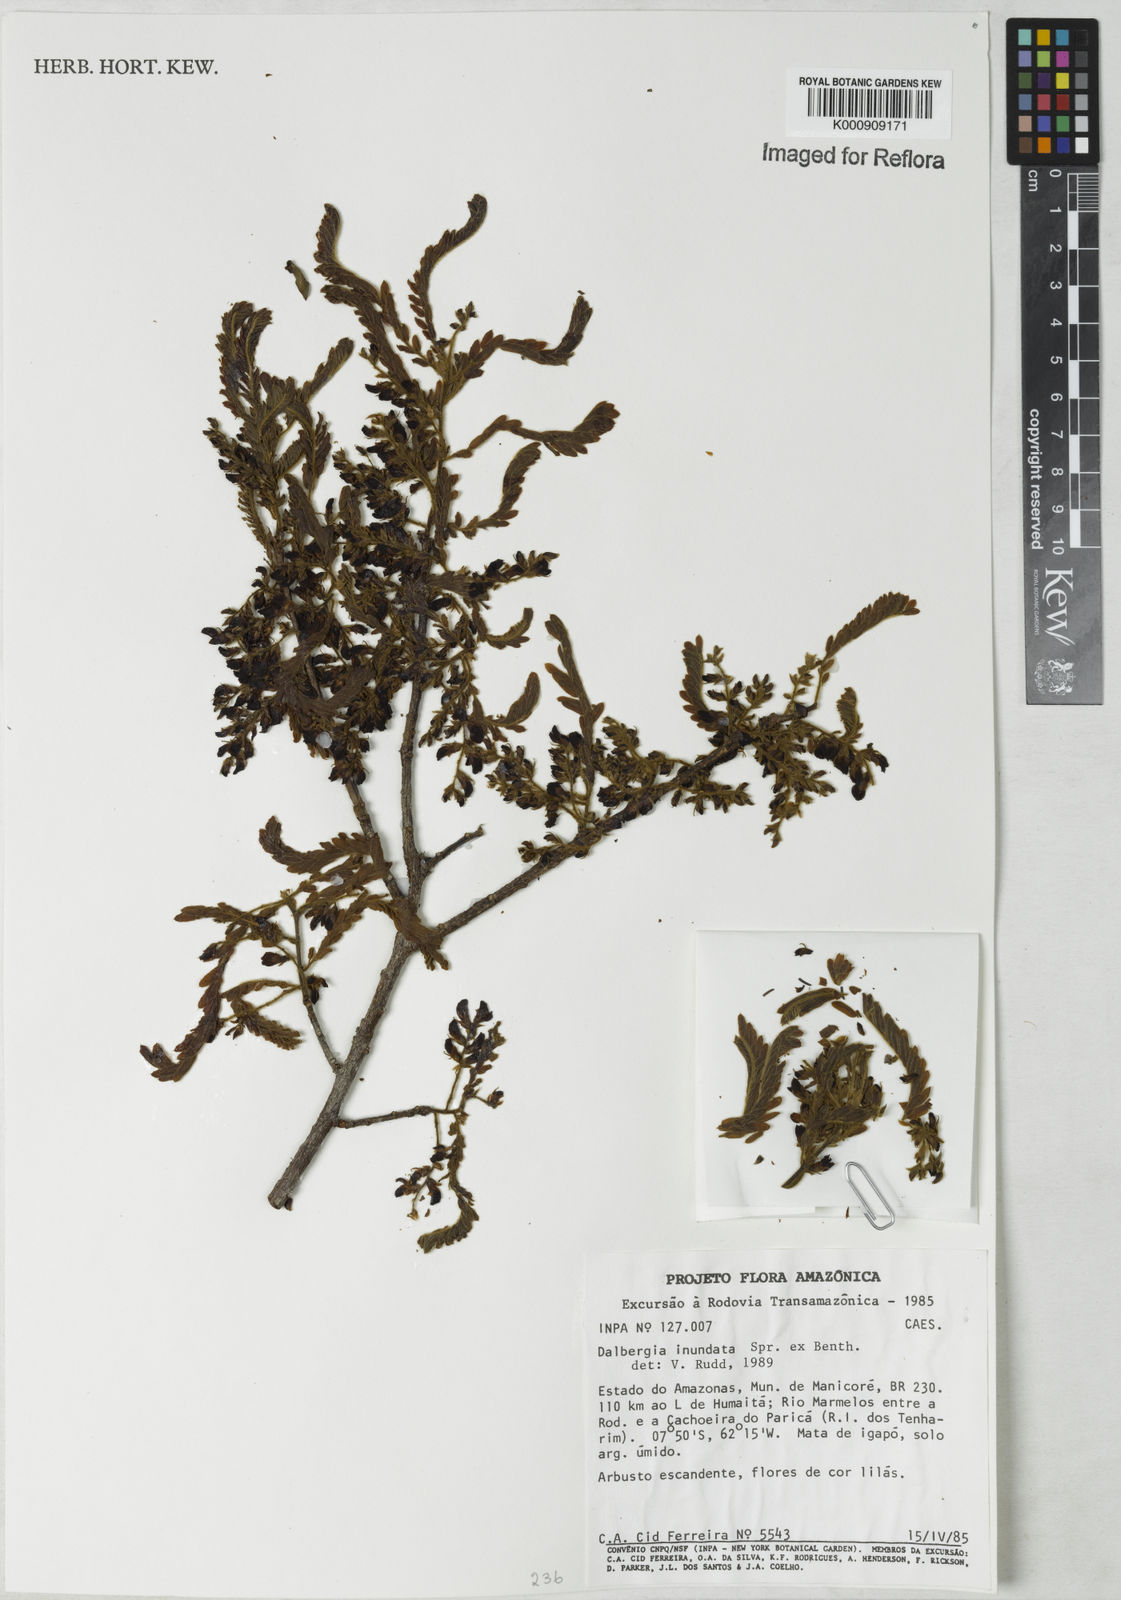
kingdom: Plantae
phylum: Tracheophyta
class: Magnoliopsida
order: Fabales
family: Fabaceae
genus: Dalbergia
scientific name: Dalbergia inundata
